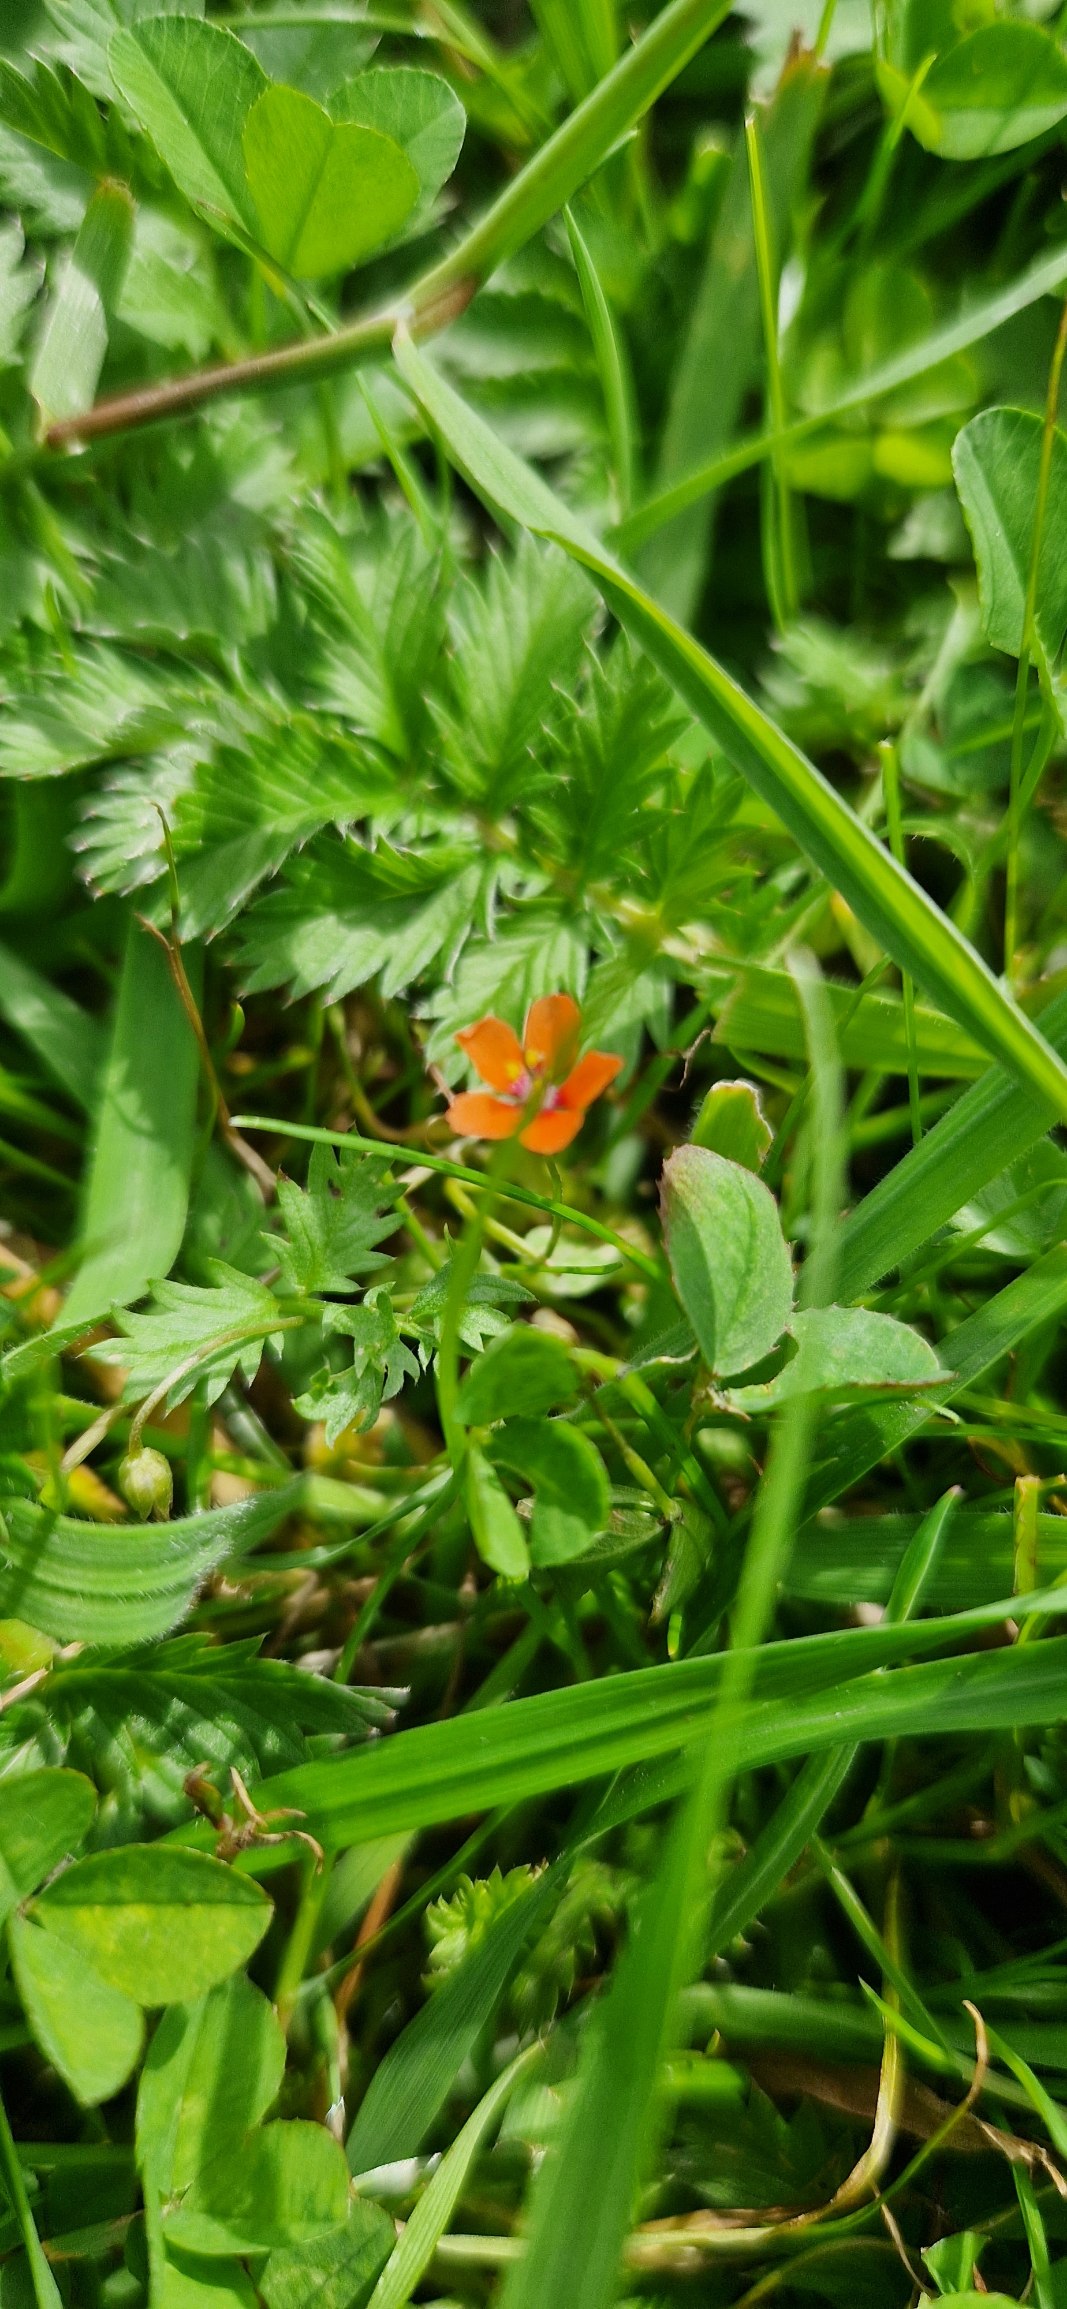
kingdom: Plantae
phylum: Tracheophyta
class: Magnoliopsida
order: Ericales
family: Primulaceae
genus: Lysimachia
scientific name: Lysimachia arvensis
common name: Rød arve
